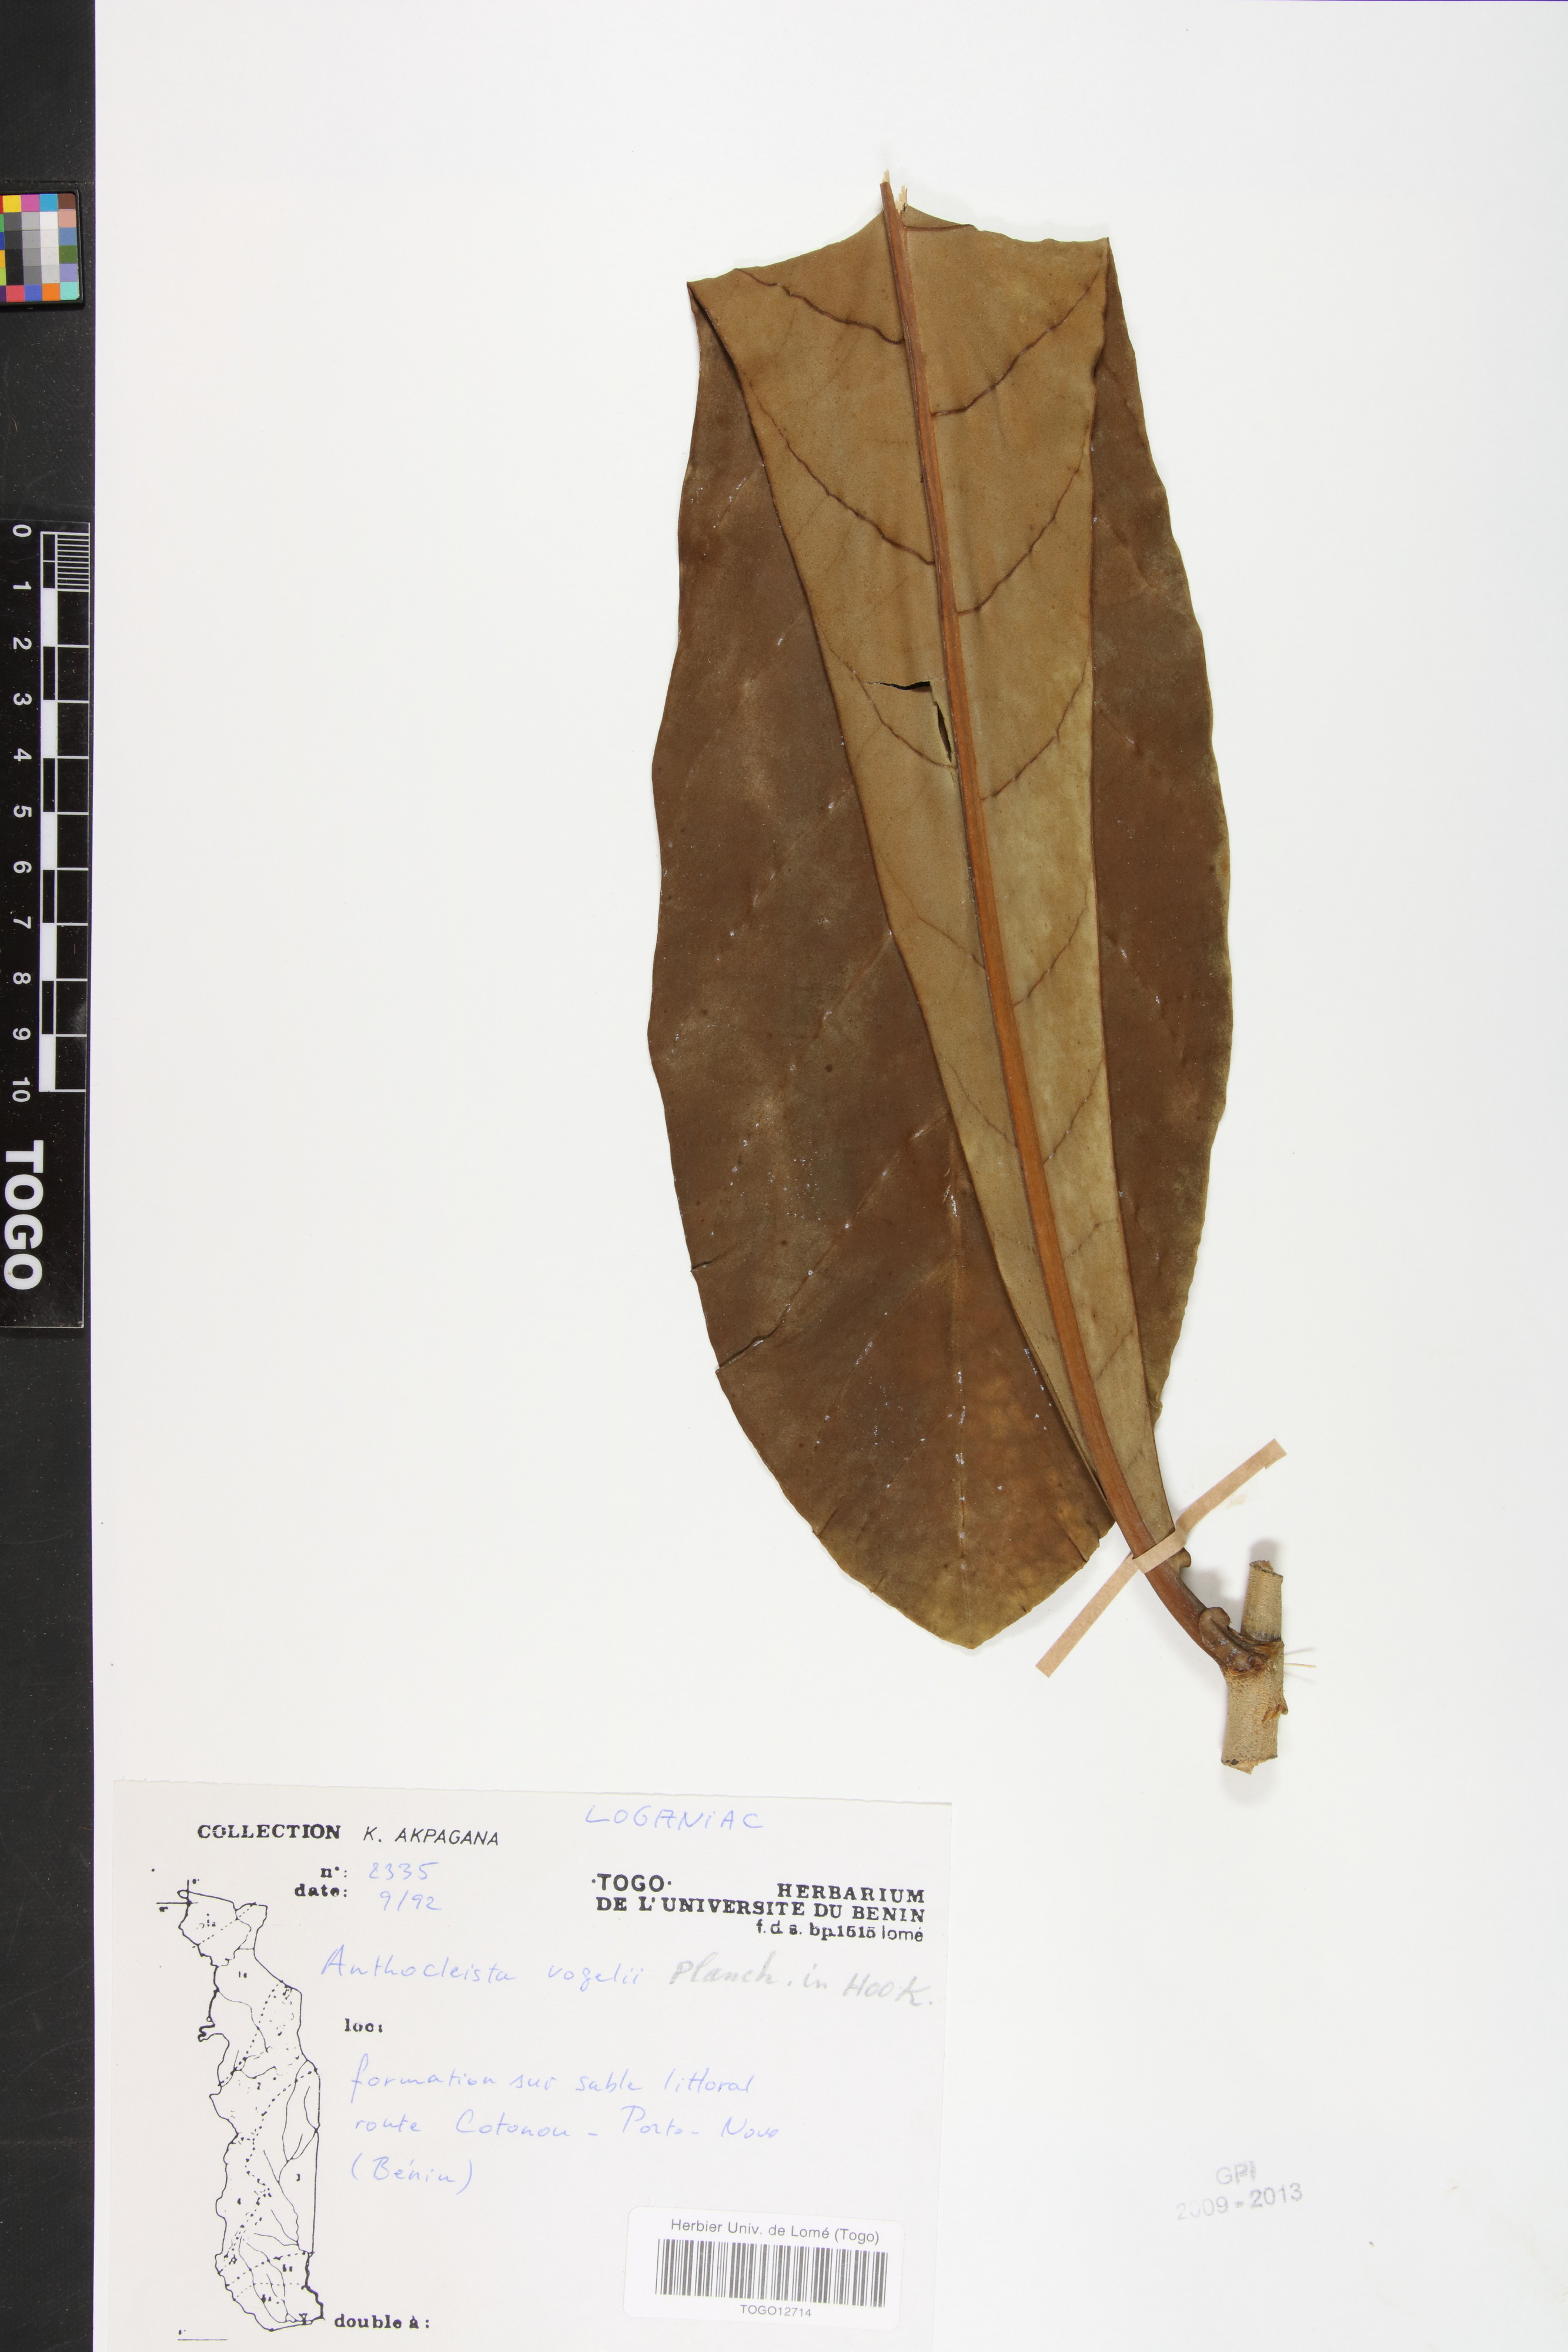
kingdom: Plantae
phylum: Tracheophyta
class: Magnoliopsida
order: Gentianales
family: Gentianaceae
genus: Anthocleista
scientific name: Anthocleista vogelii
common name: Cabbage tree
